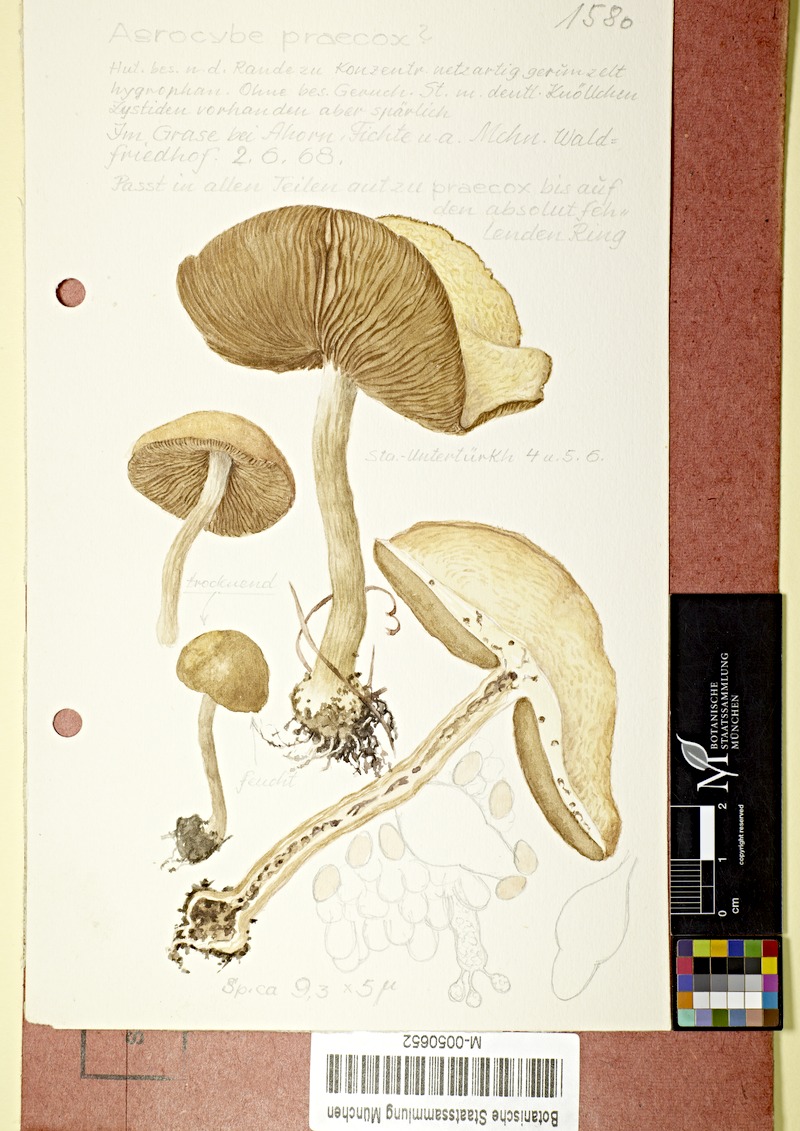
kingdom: Fungi
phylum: Basidiomycota
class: Agaricomycetes
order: Agaricales
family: Strophariaceae
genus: Agrocybe
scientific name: Agrocybe praecox
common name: Spring fieldcap
